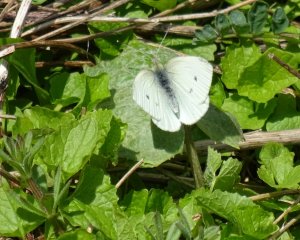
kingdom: Animalia
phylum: Arthropoda
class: Insecta
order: Lepidoptera
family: Pieridae
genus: Pieris
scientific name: Pieris rapae
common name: Cabbage White
